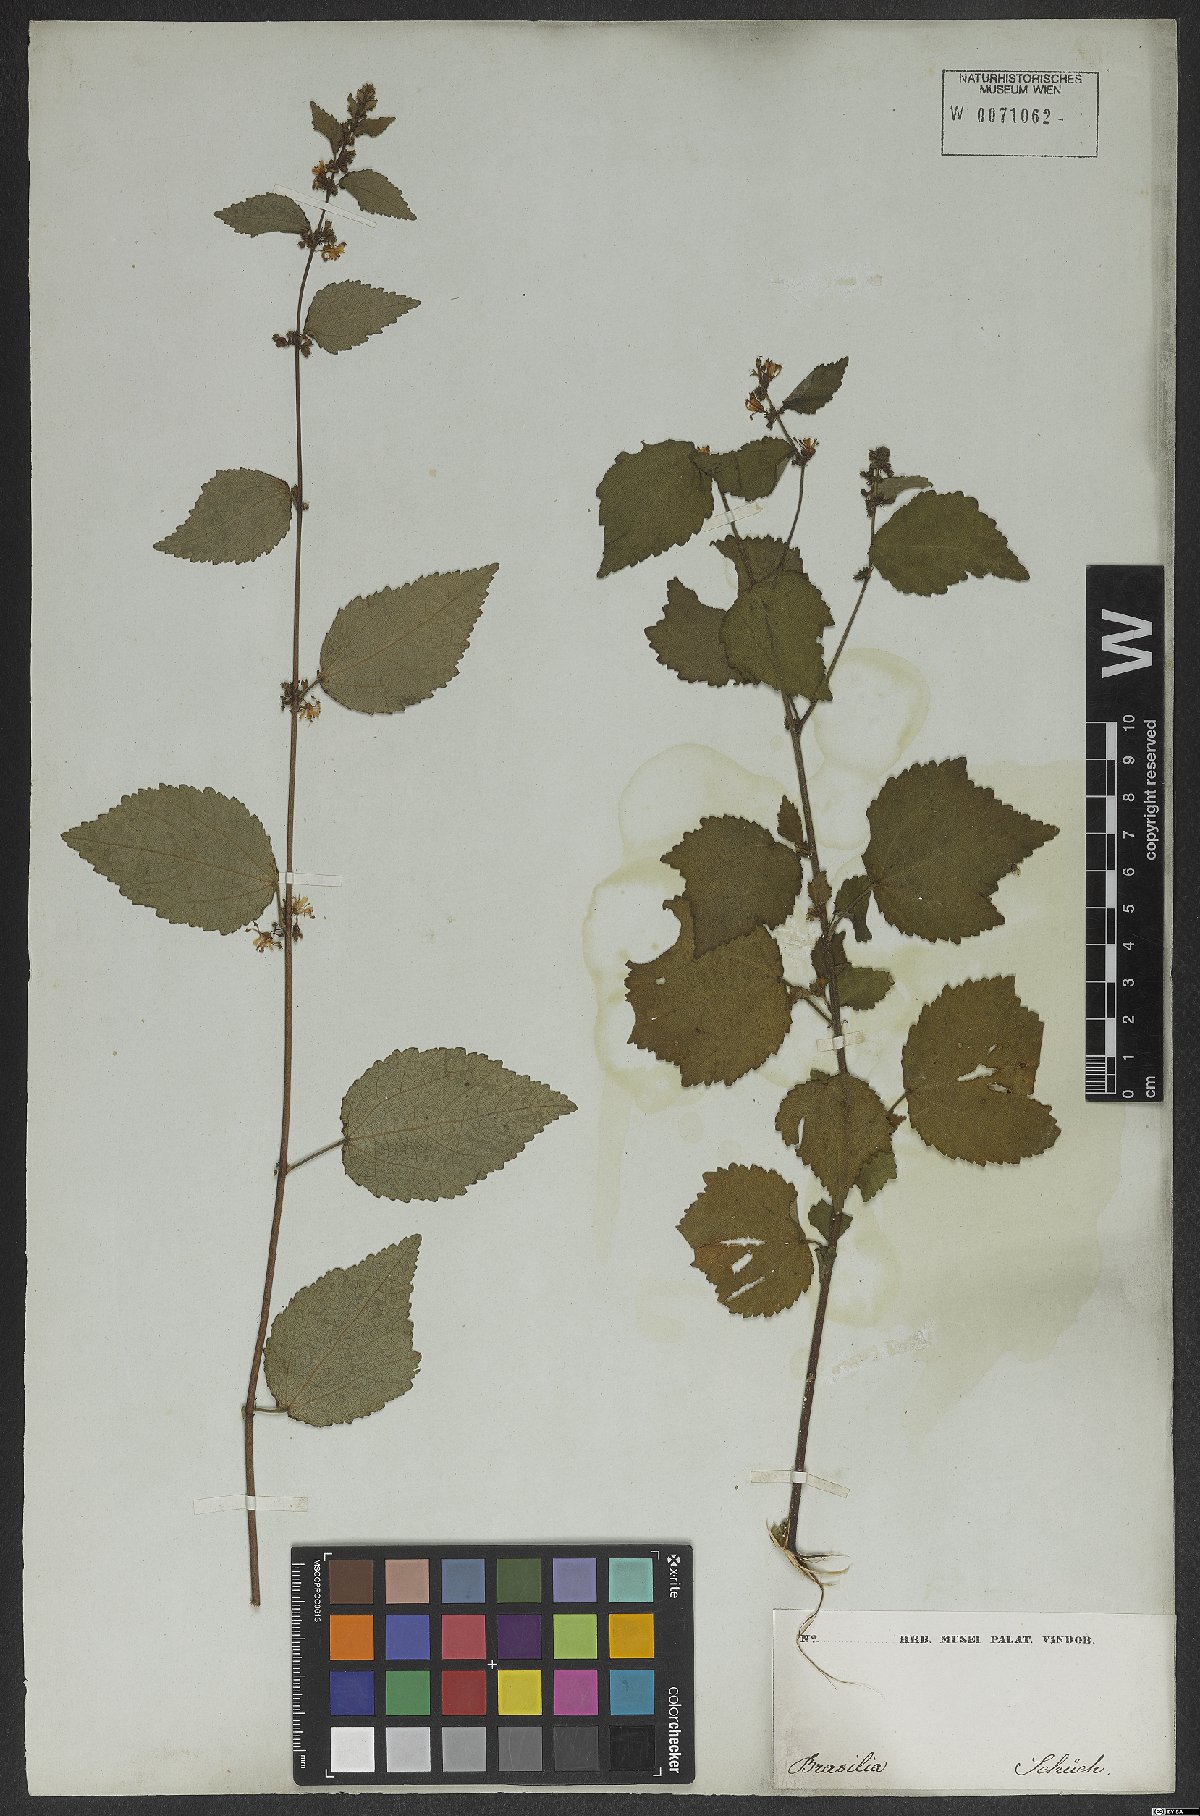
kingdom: Plantae
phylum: Tracheophyta
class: Magnoliopsida
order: Malvales
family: Malvaceae
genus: Triumfetta
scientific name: Triumfetta rhomboidea
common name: Diamond burbark
